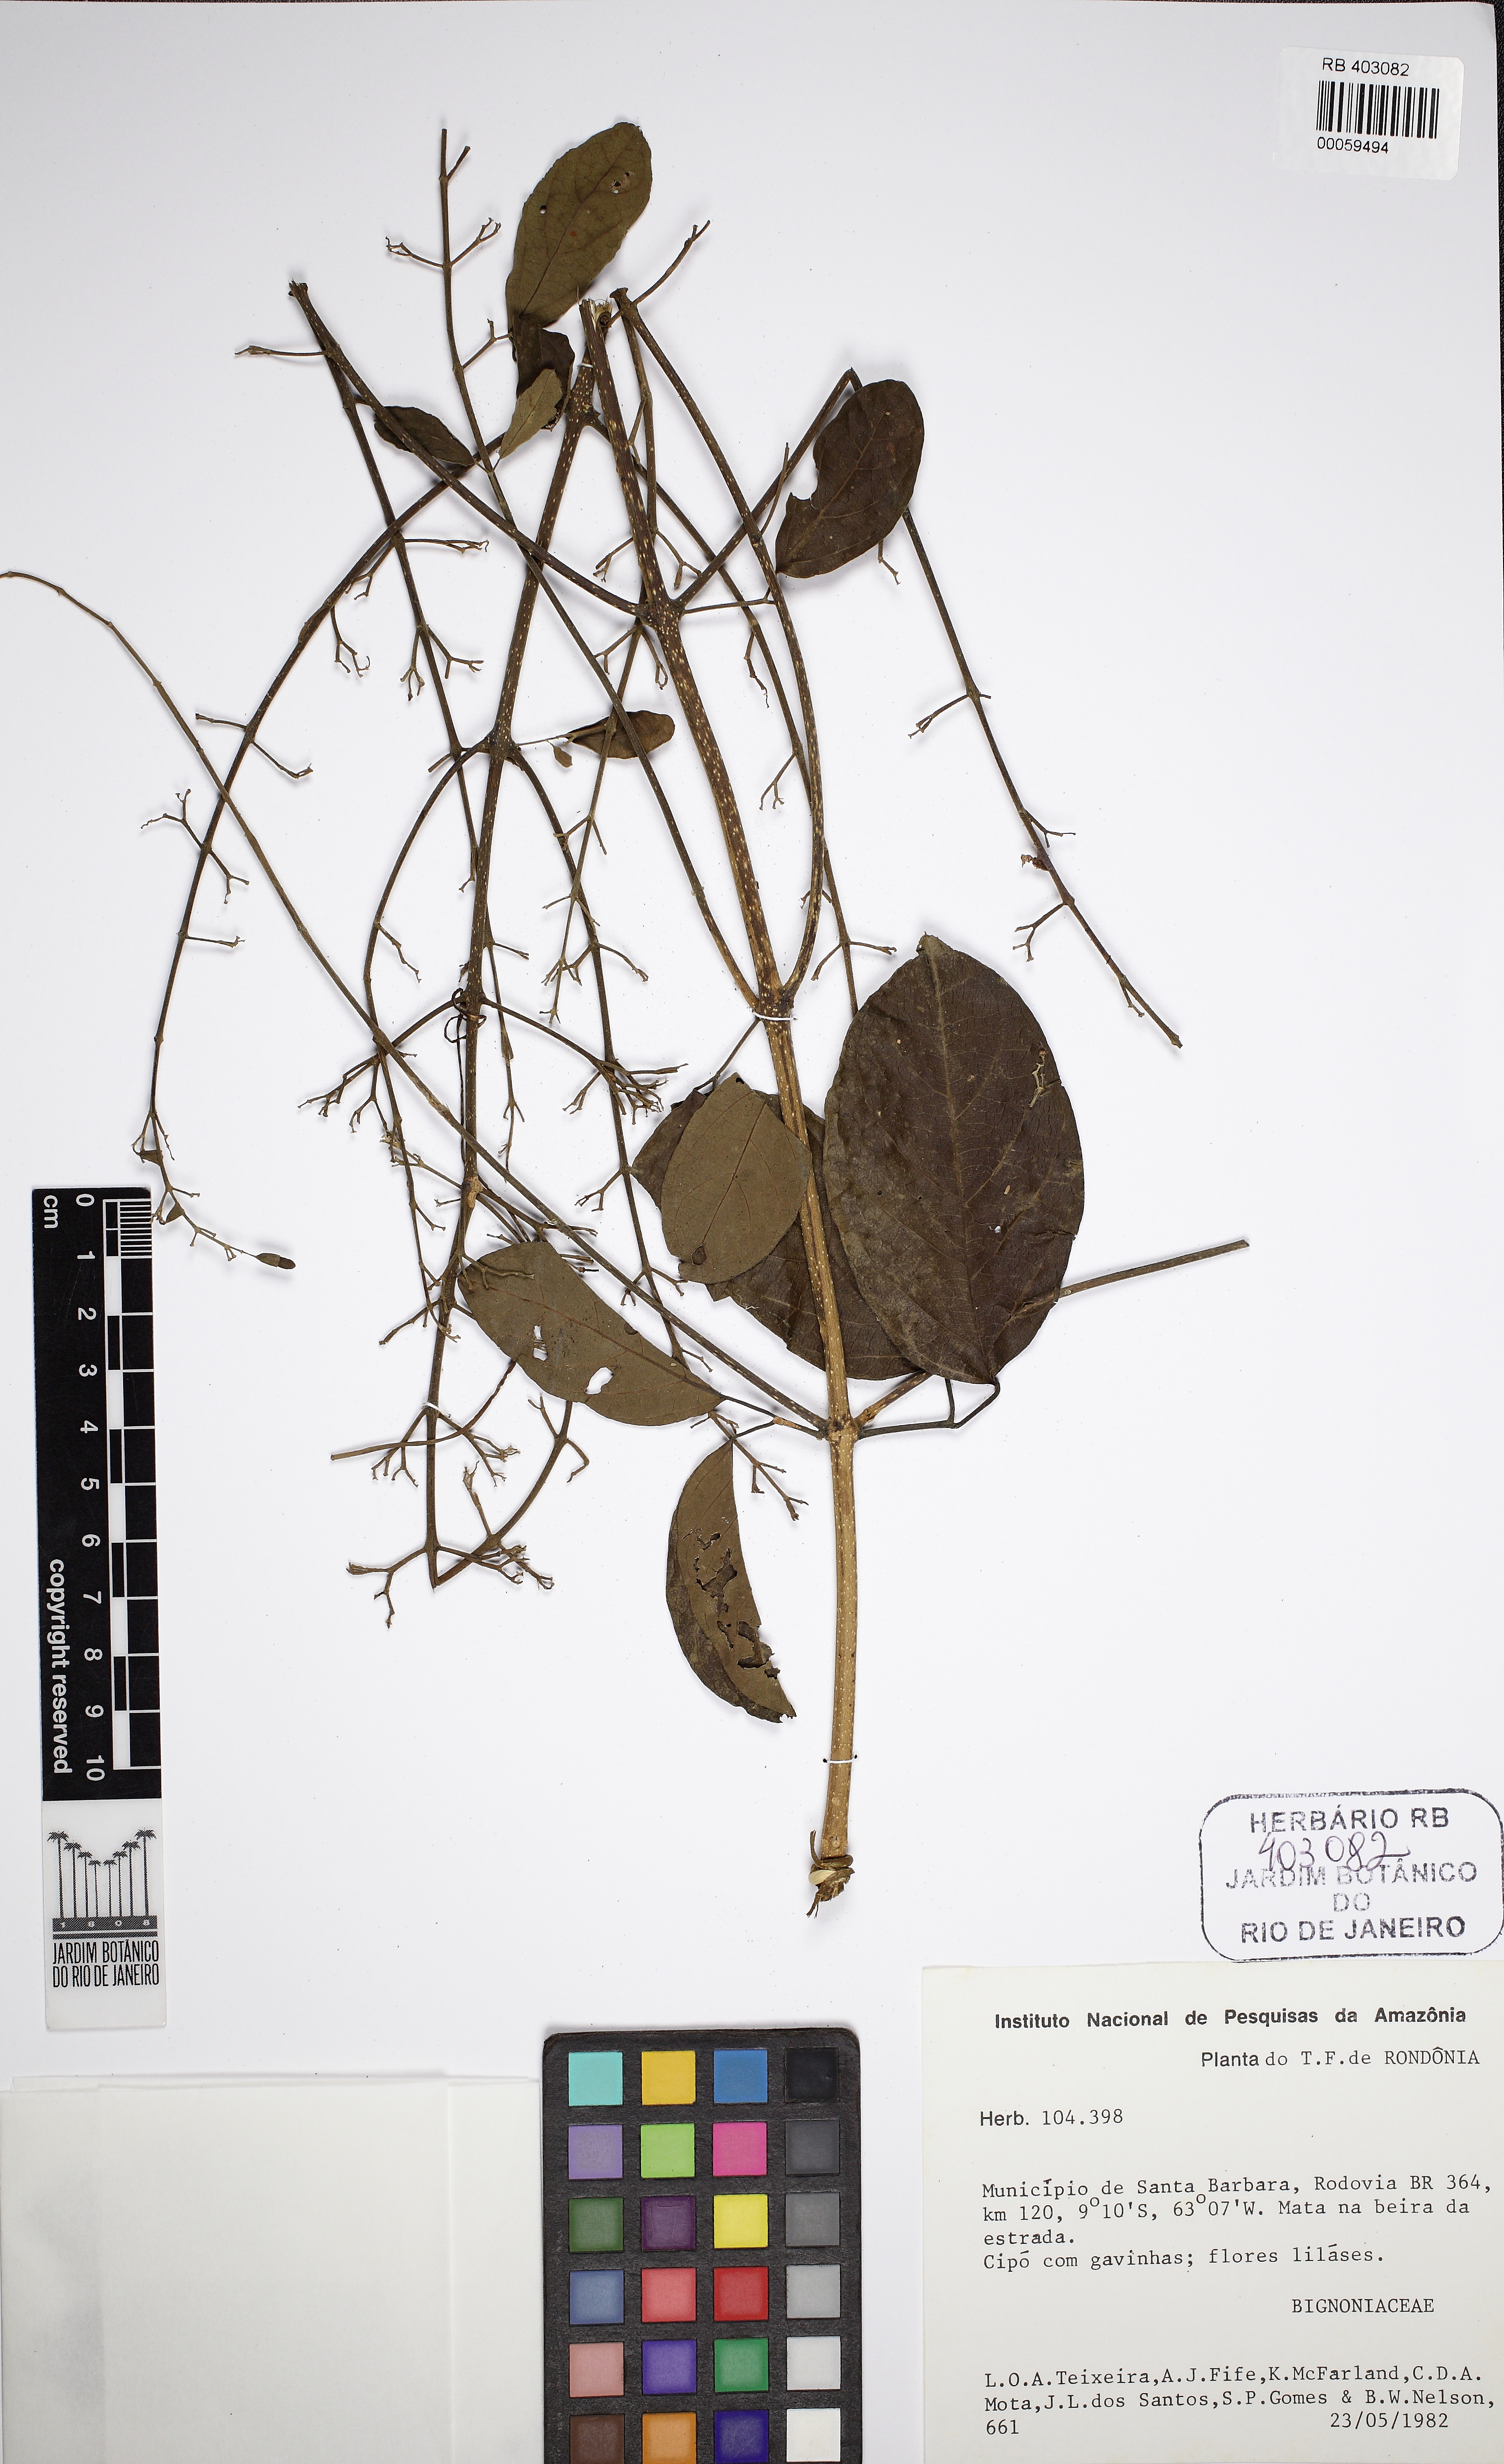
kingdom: Plantae
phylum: Tracheophyta
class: Magnoliopsida
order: Lamiales
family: Bignoniaceae
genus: Fridericia
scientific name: Fridericia tuberculata
